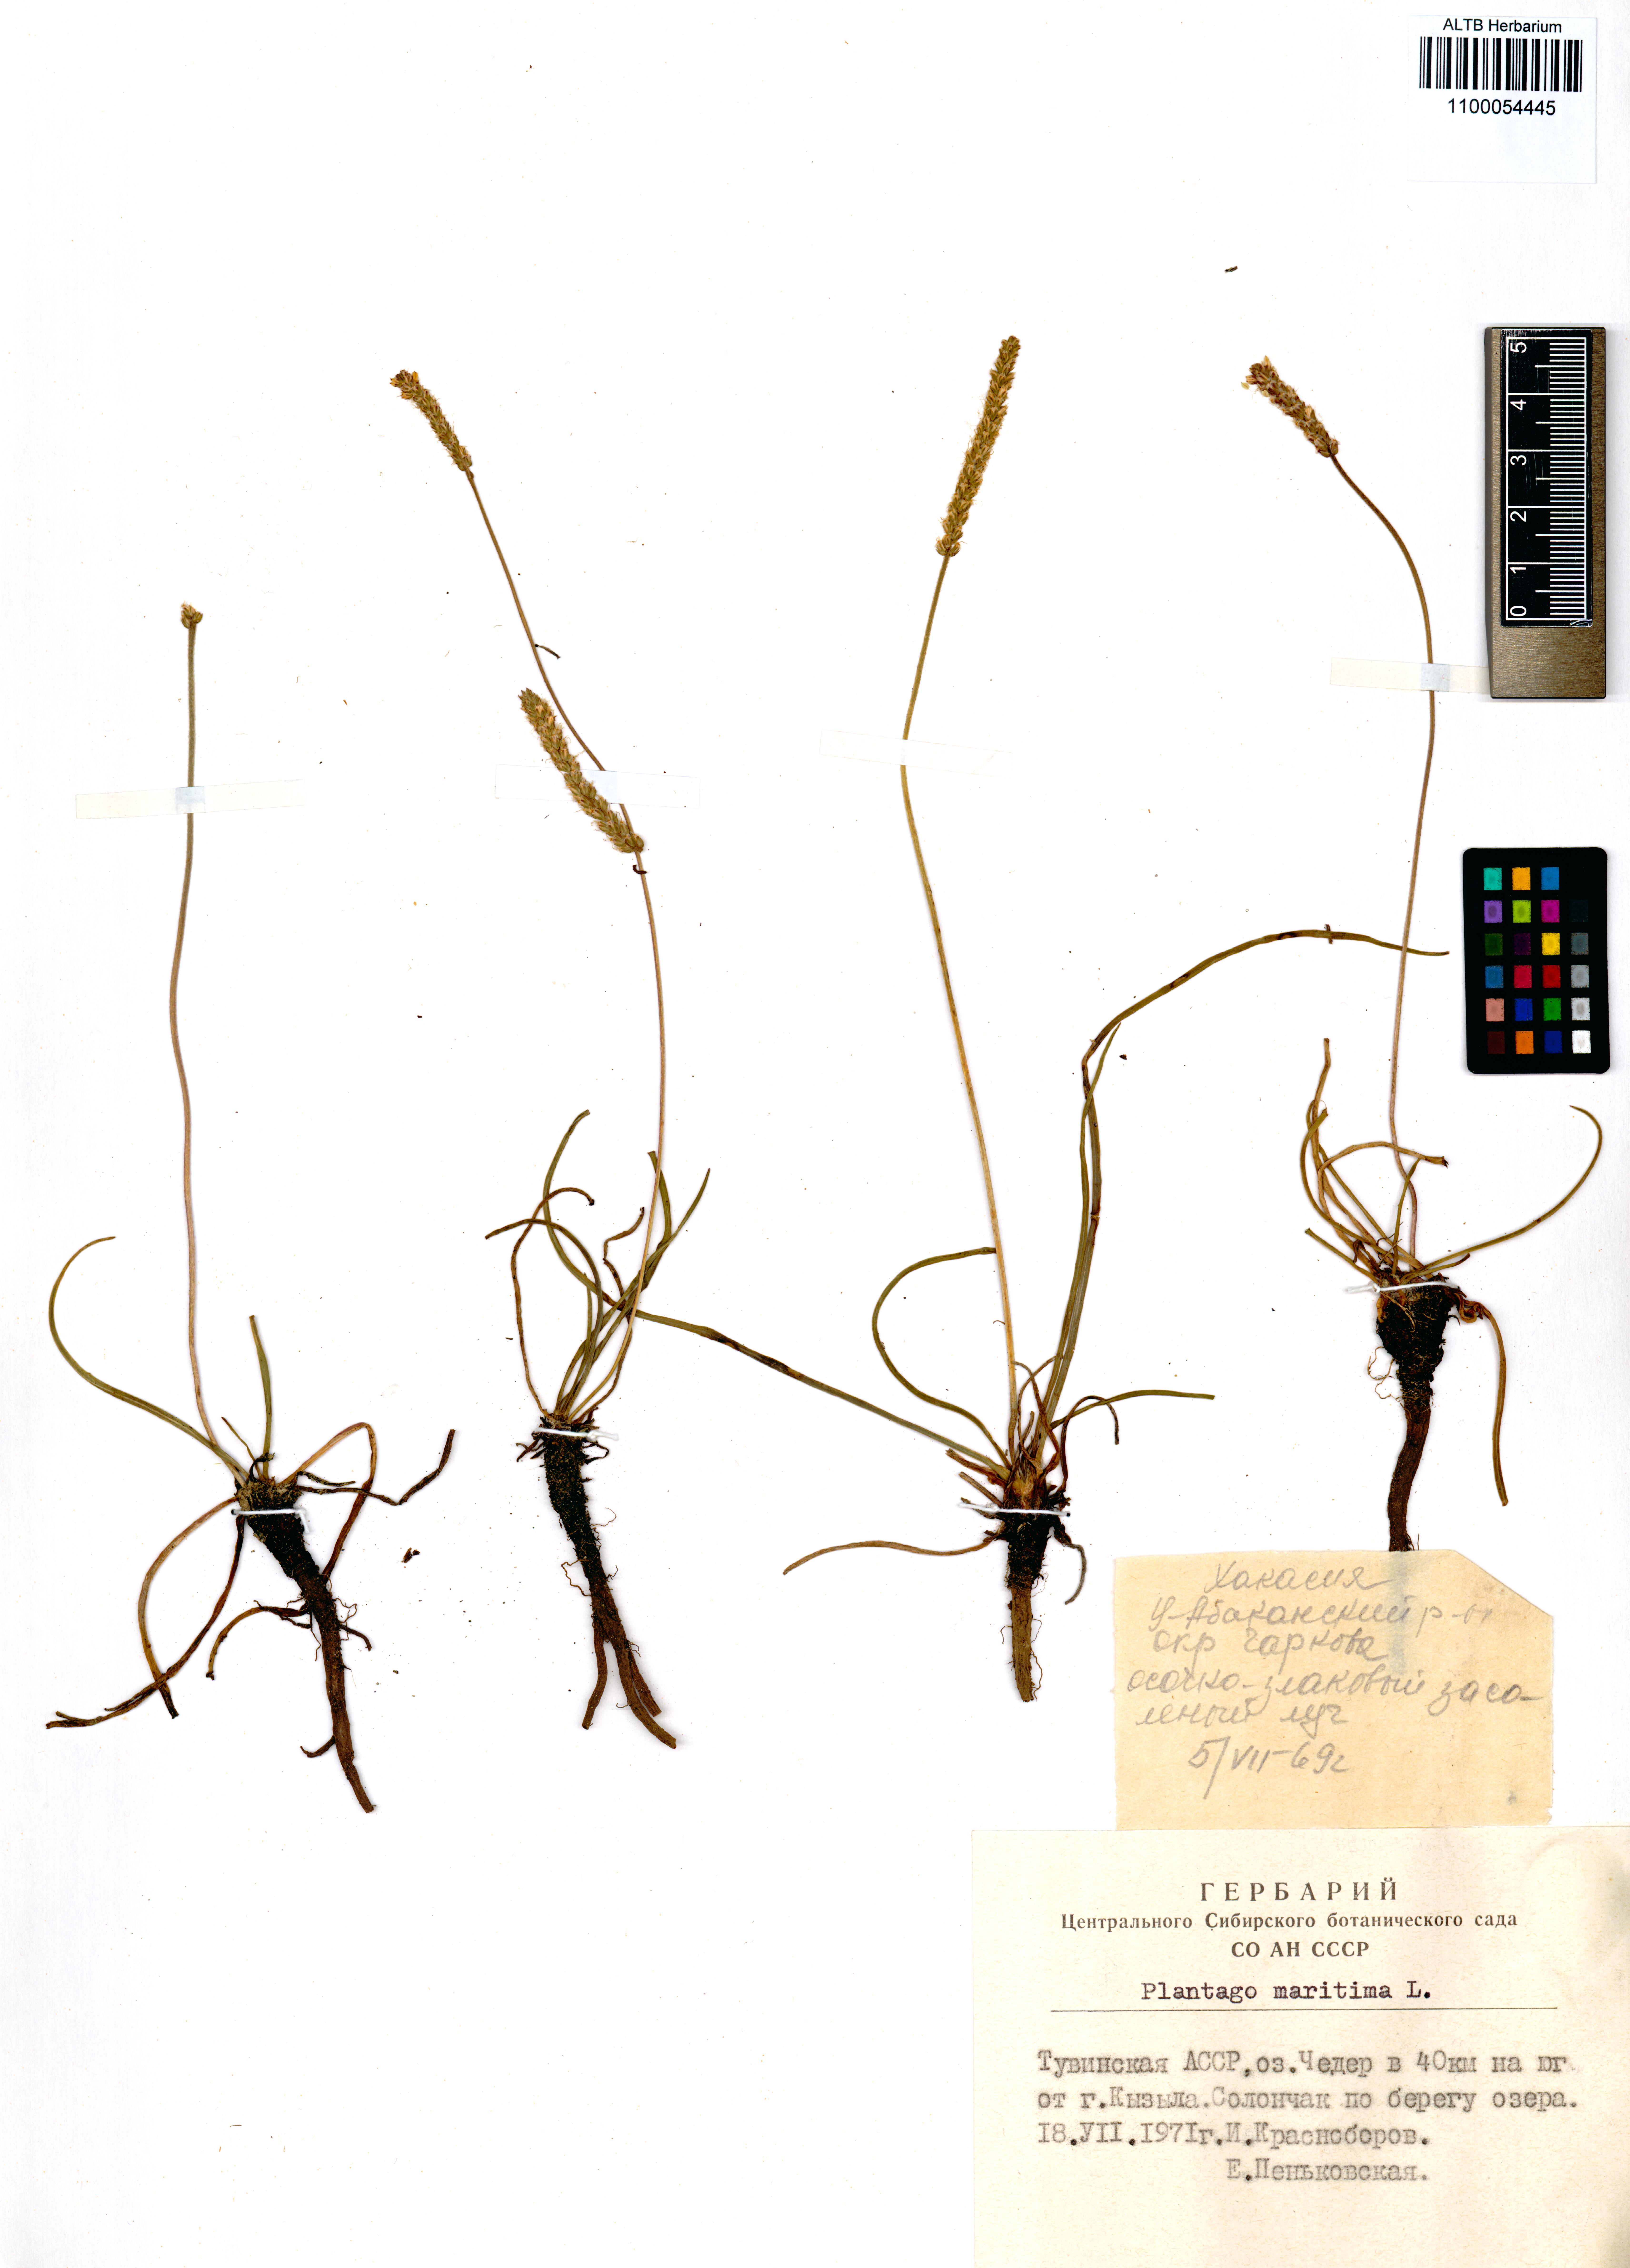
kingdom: Plantae
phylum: Tracheophyta
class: Magnoliopsida
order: Lamiales
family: Plantaginaceae
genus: Plantago
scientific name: Plantago maritima
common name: Sea plantain
